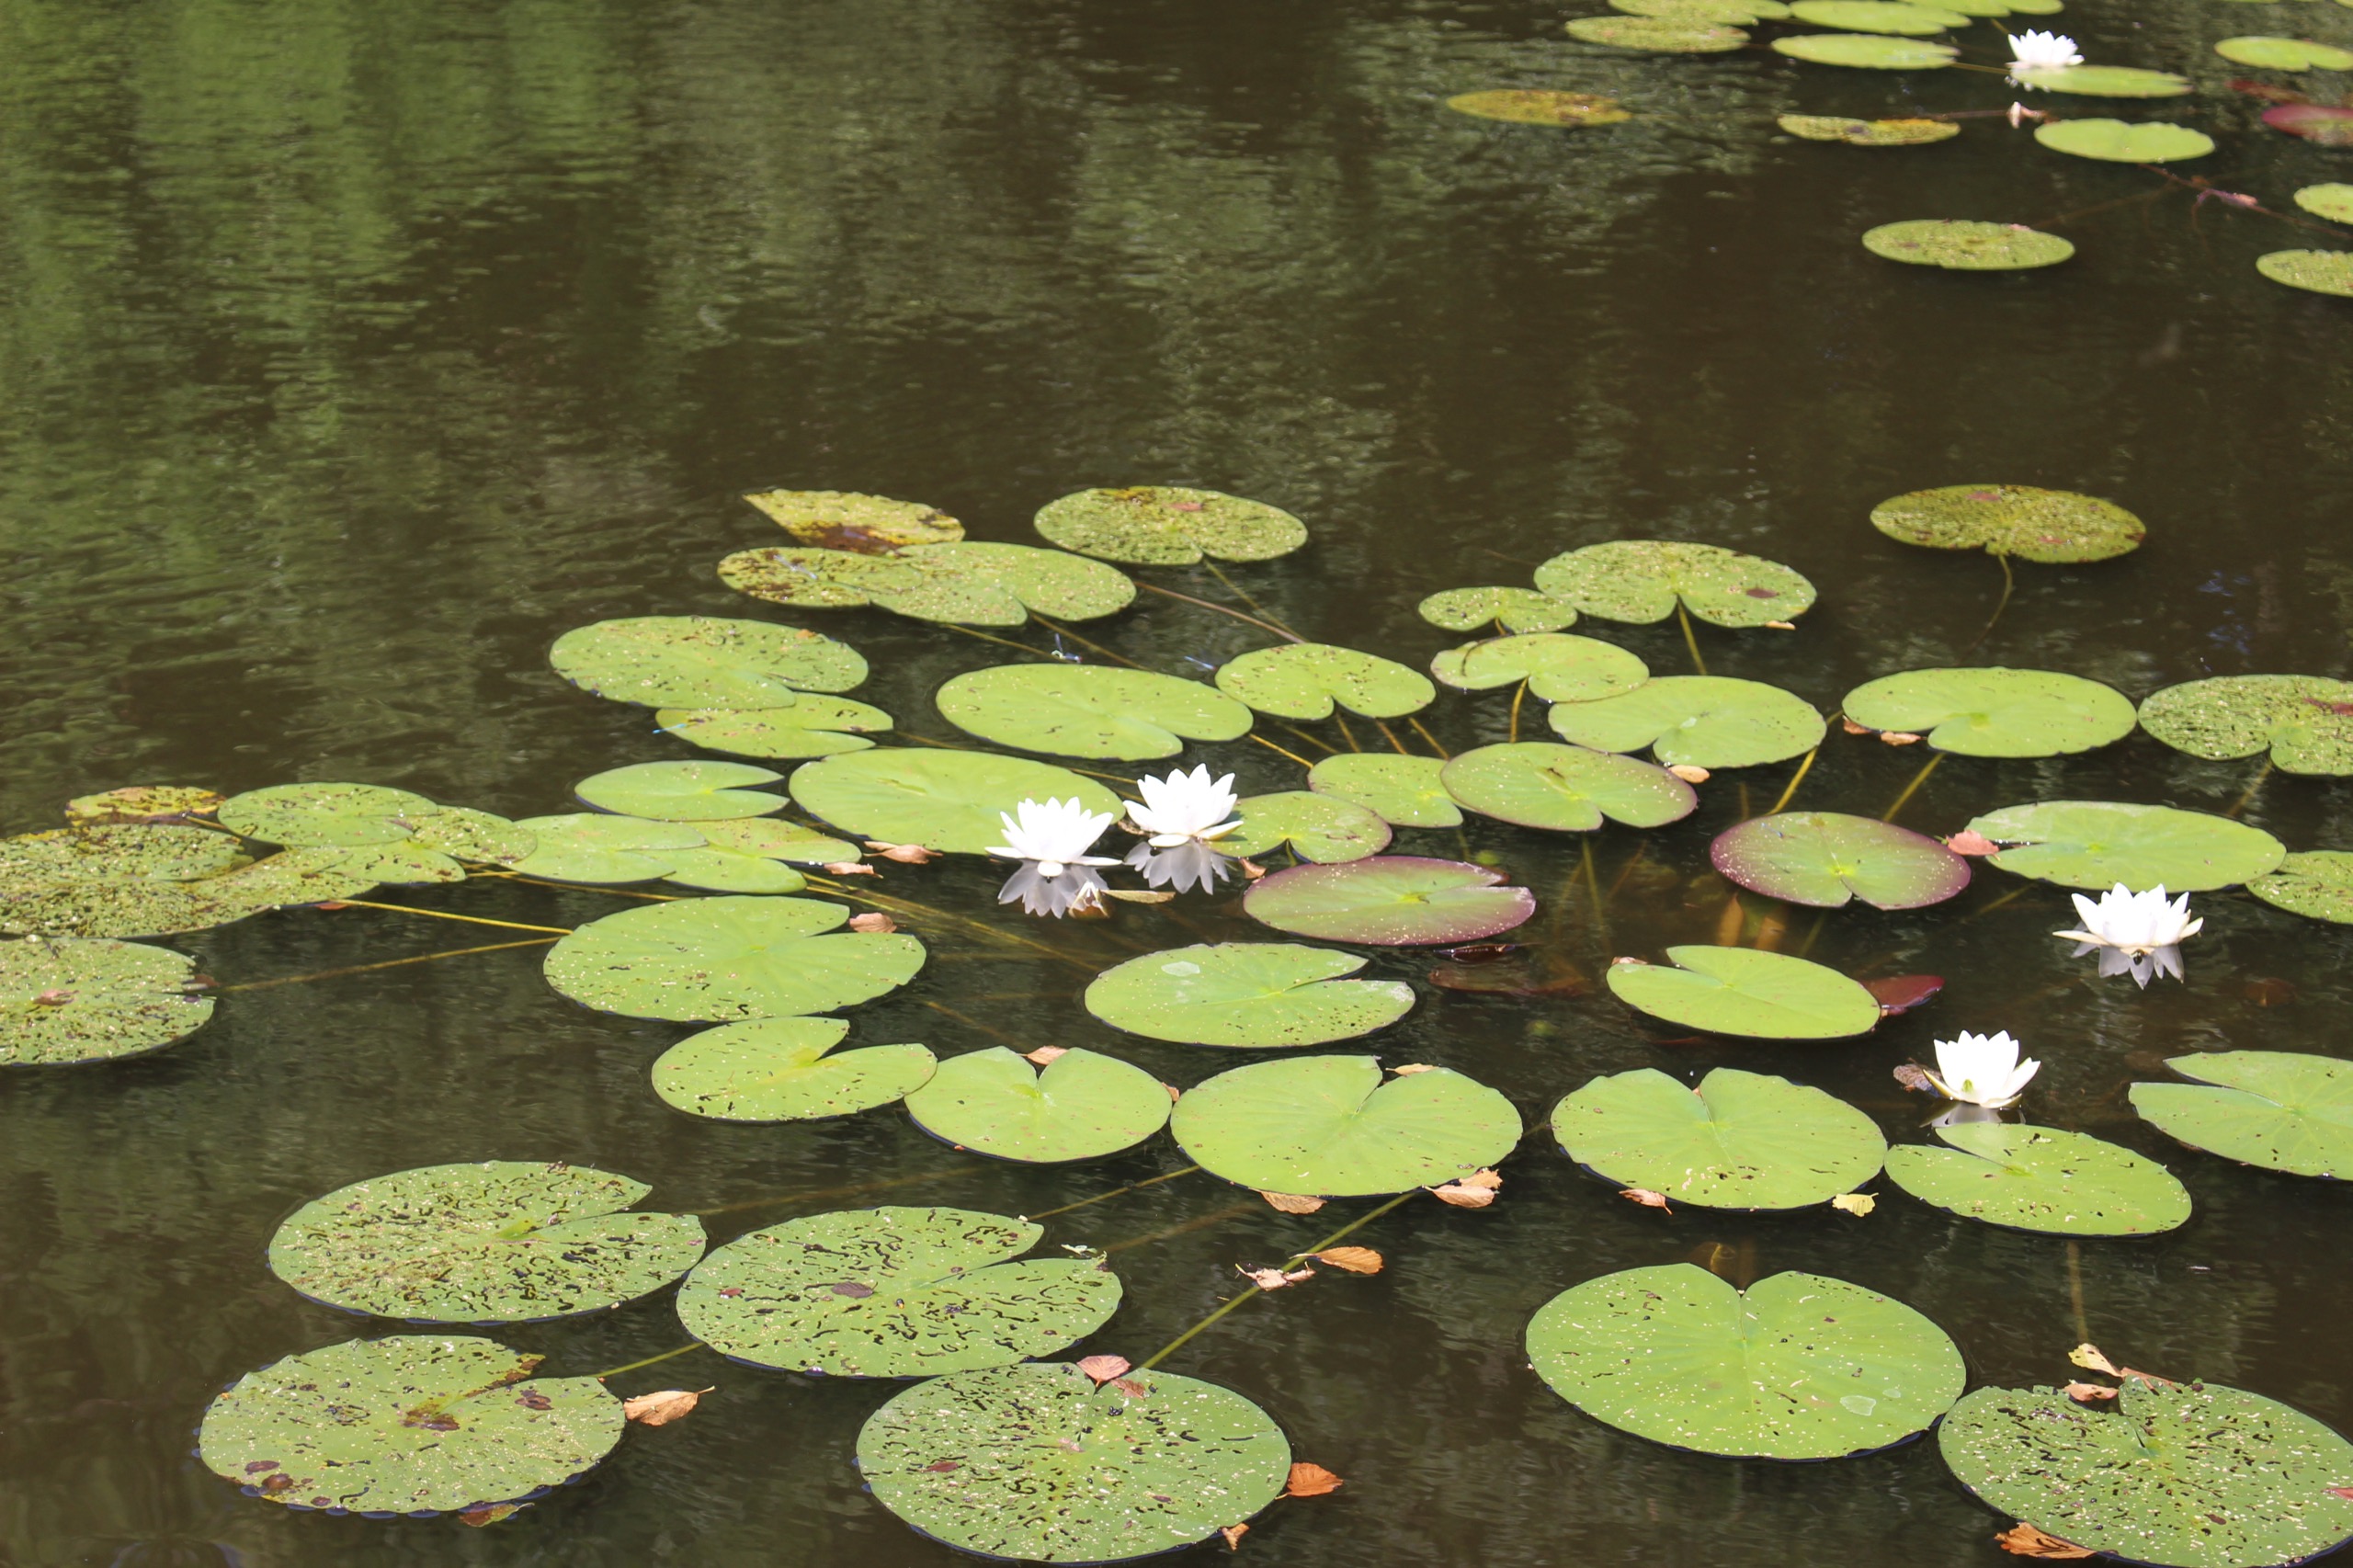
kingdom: Plantae
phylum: Tracheophyta
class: Magnoliopsida
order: Nymphaeales
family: Nymphaeaceae
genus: Nymphaea
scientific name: Nymphaea alba
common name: Hvid åkande
